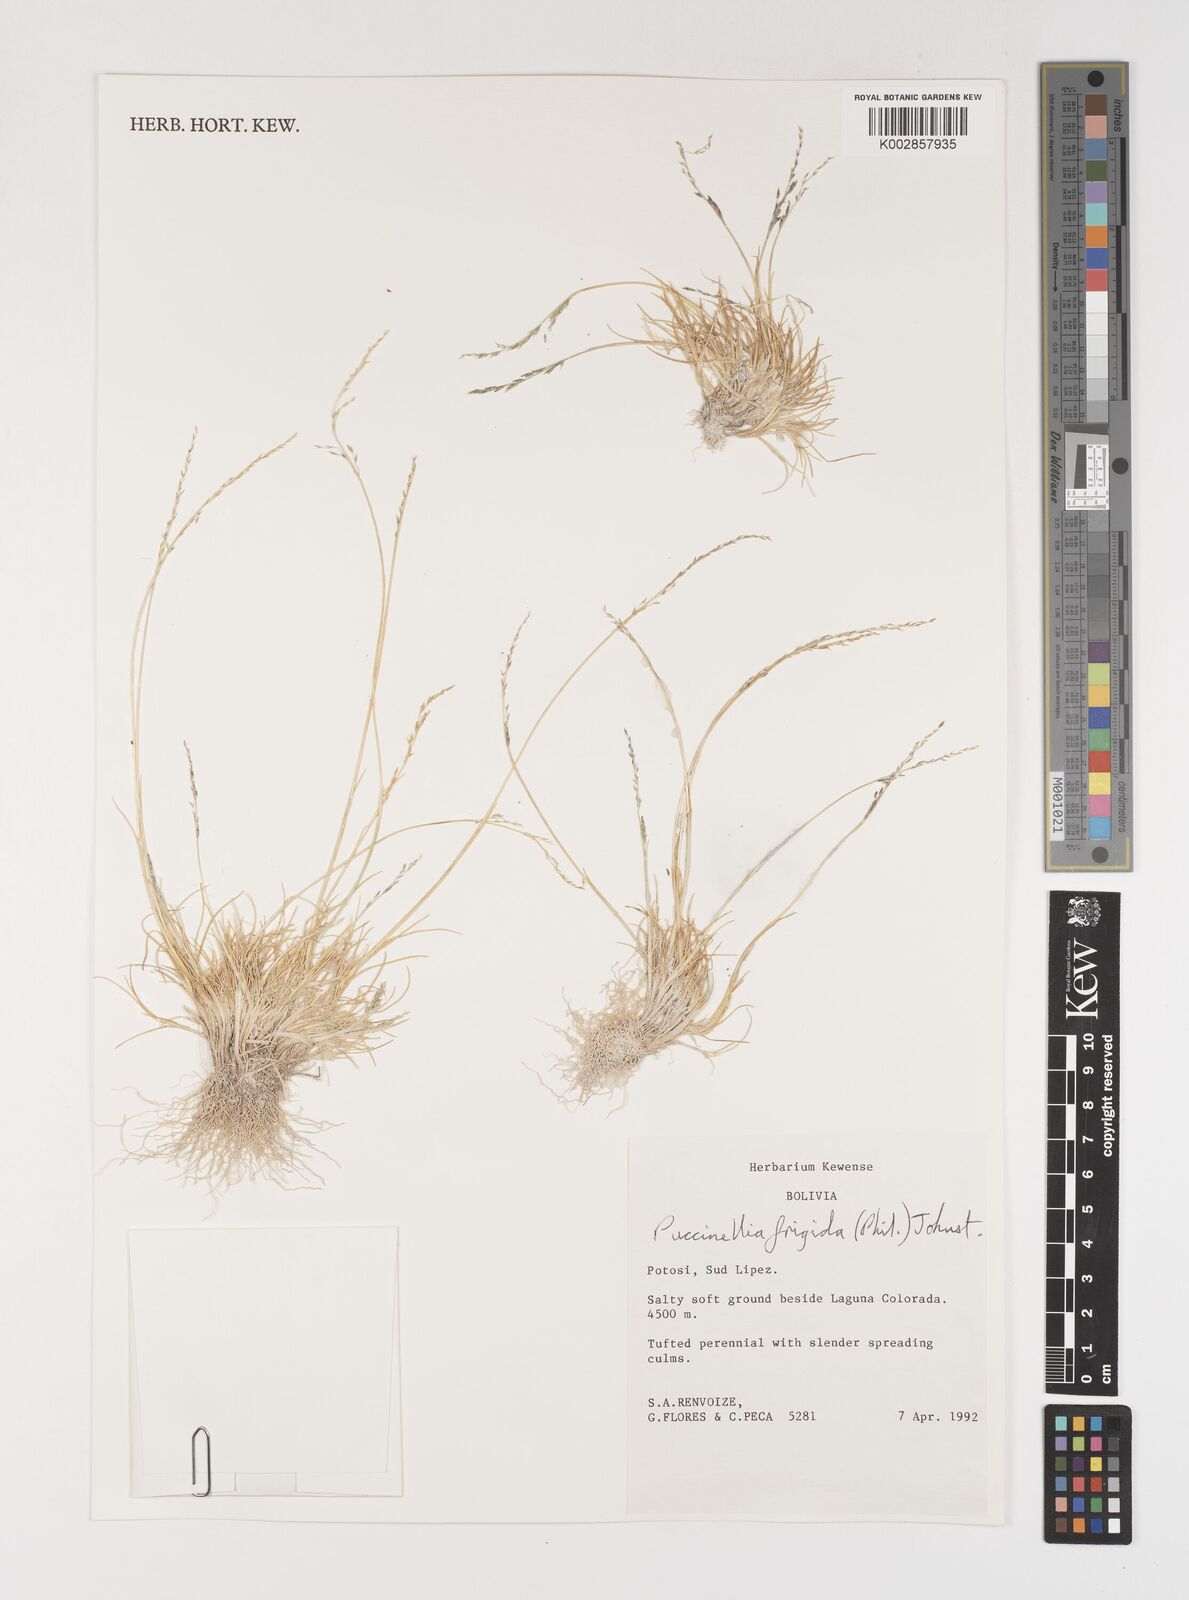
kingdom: Plantae
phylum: Tracheophyta
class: Liliopsida
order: Poales
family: Poaceae
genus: Puccinellia
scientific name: Puccinellia frigida
